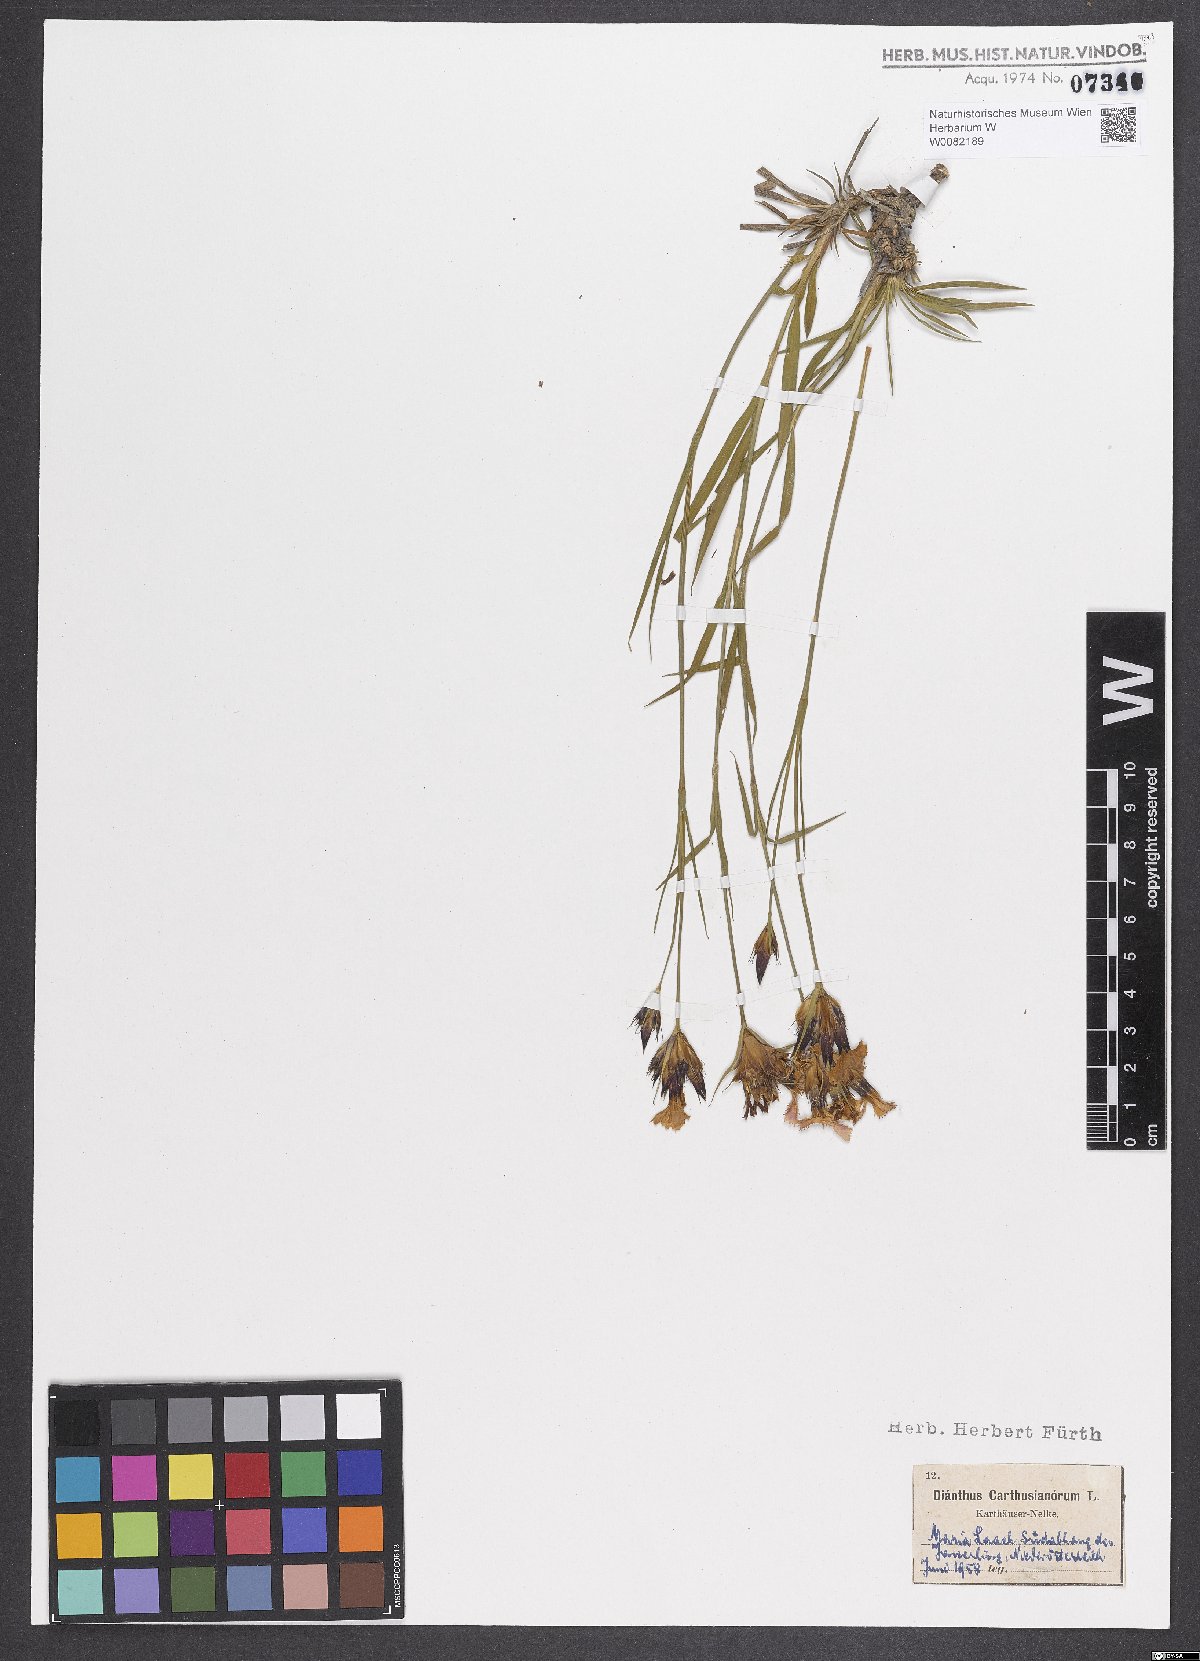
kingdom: Plantae
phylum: Tracheophyta
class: Magnoliopsida
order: Caryophyllales
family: Caryophyllaceae
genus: Dianthus
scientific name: Dianthus carthusianorum
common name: Carthusian pink
